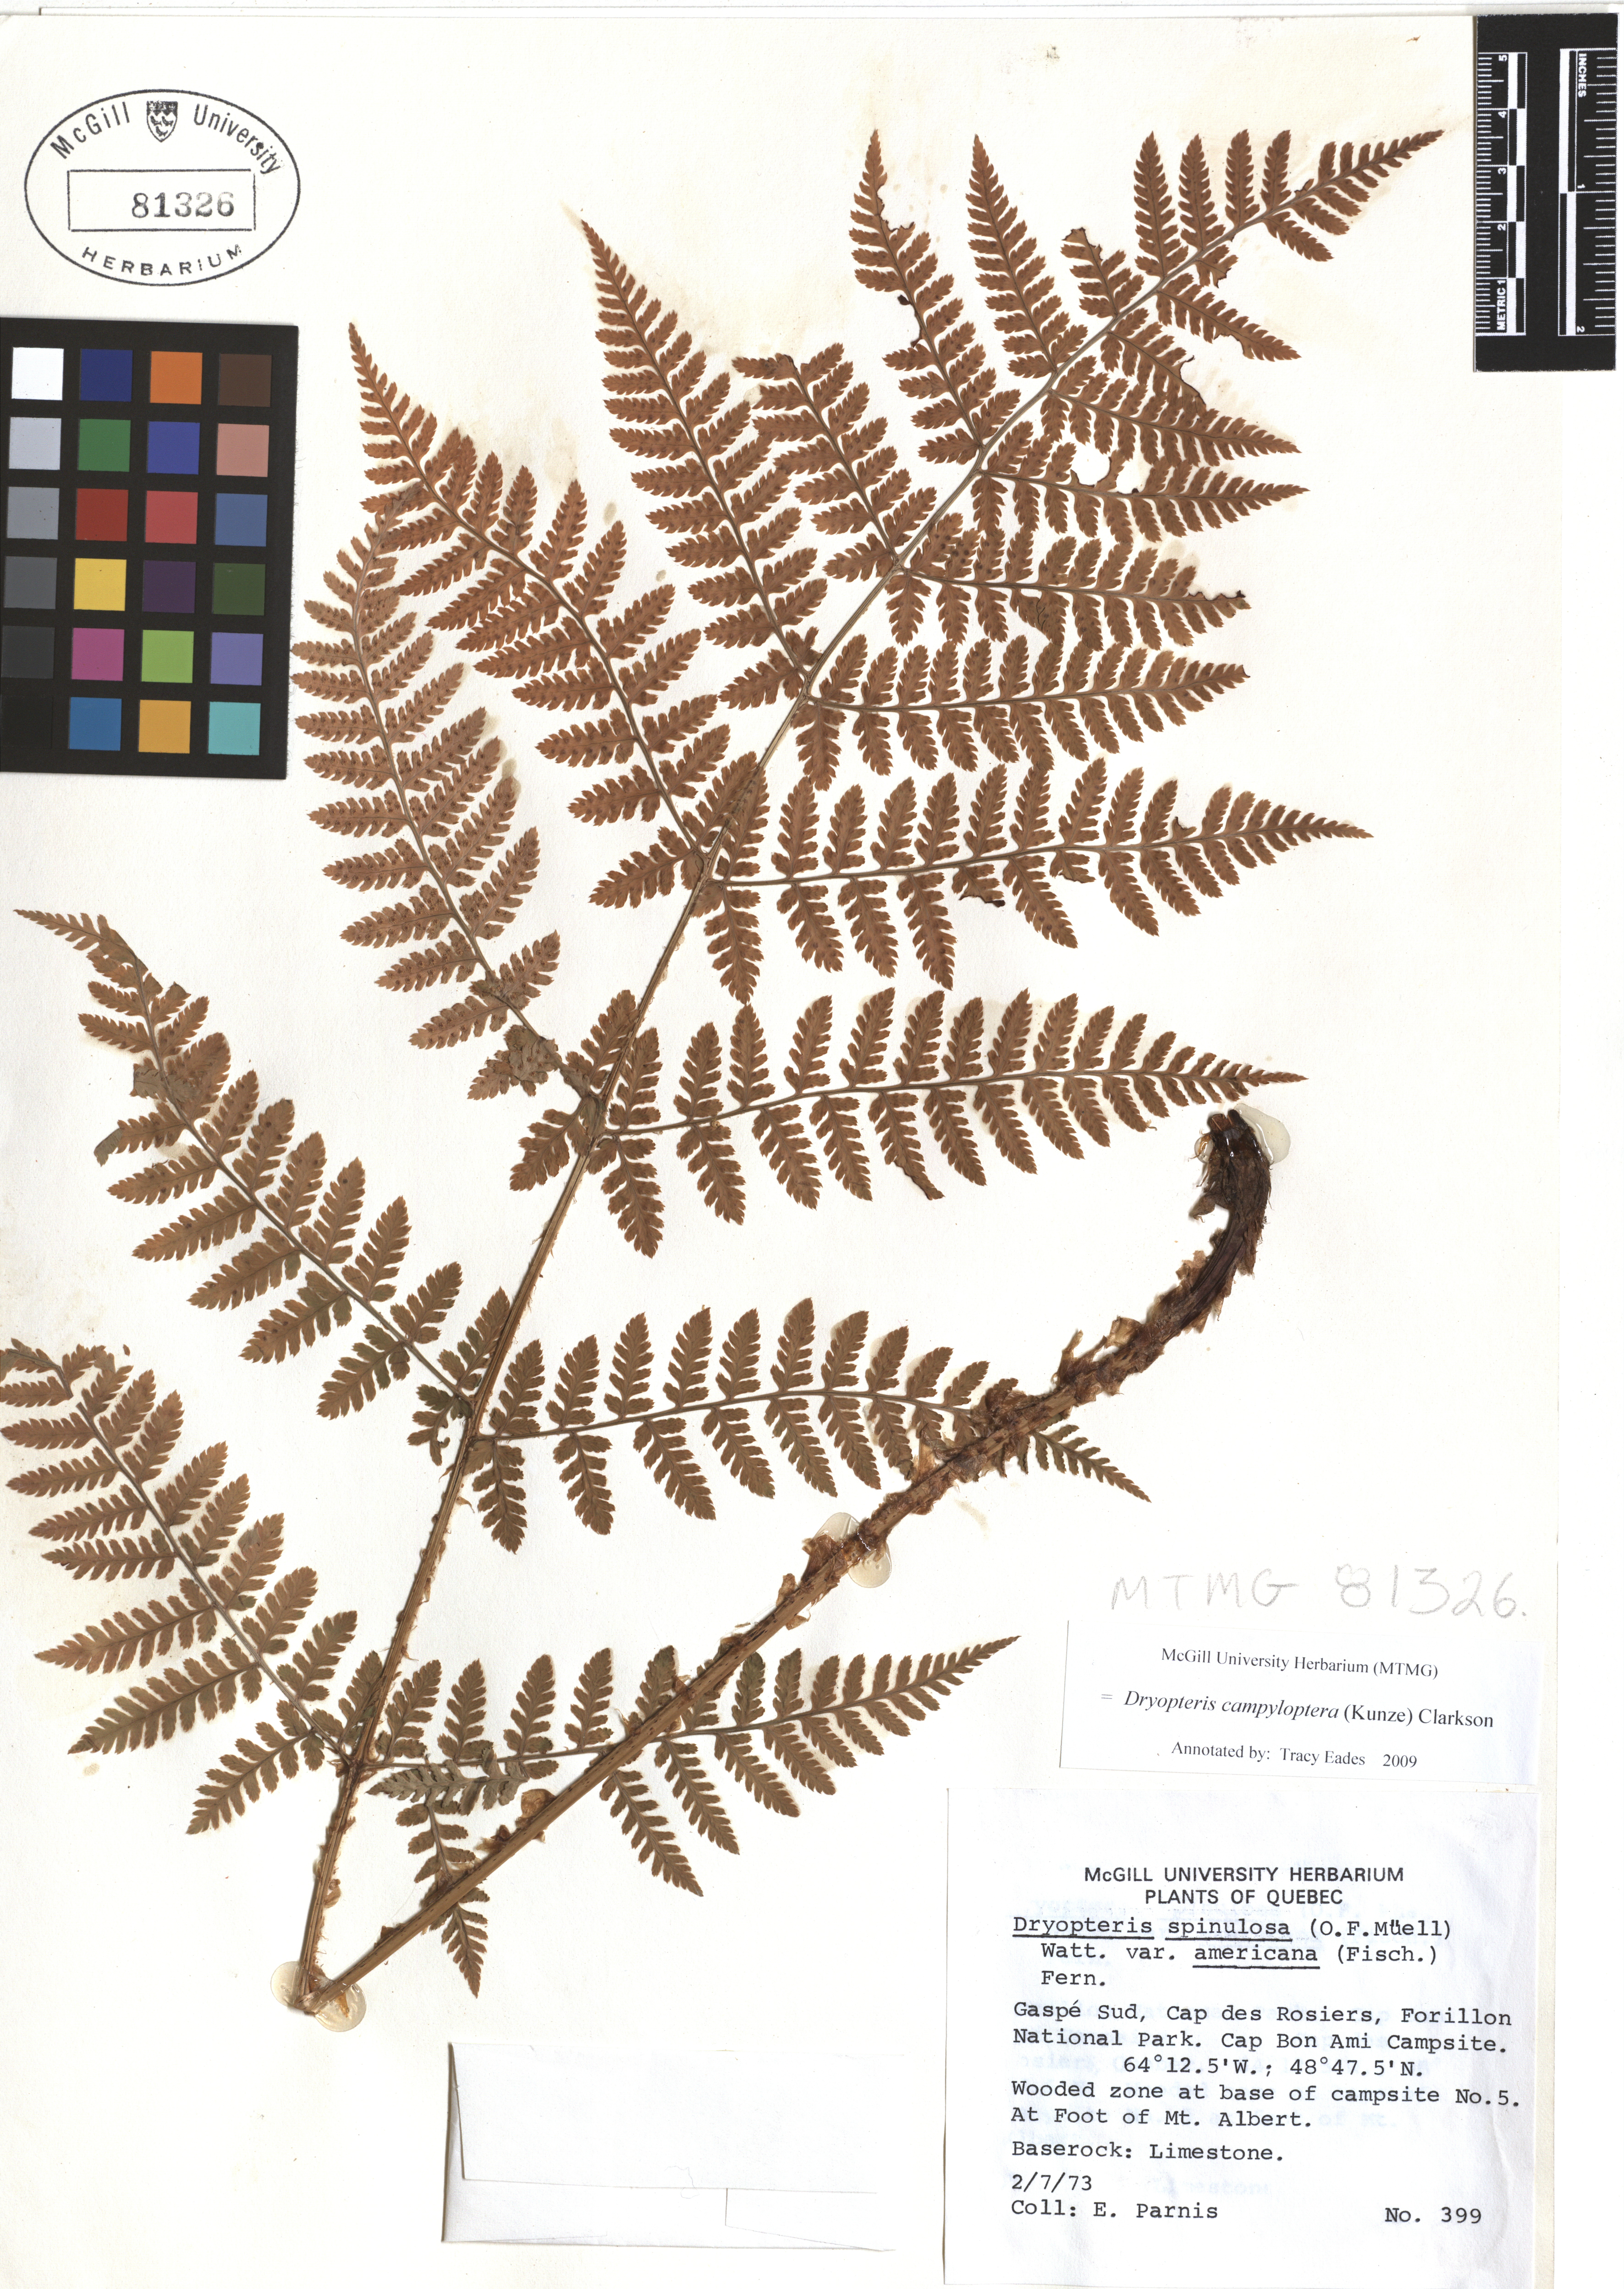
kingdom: Plantae
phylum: Tracheophyta
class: Polypodiopsida
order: Polypodiales
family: Dryopteridaceae
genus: Dryopteris
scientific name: Dryopteris campyloptera
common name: Mountain wood fern
